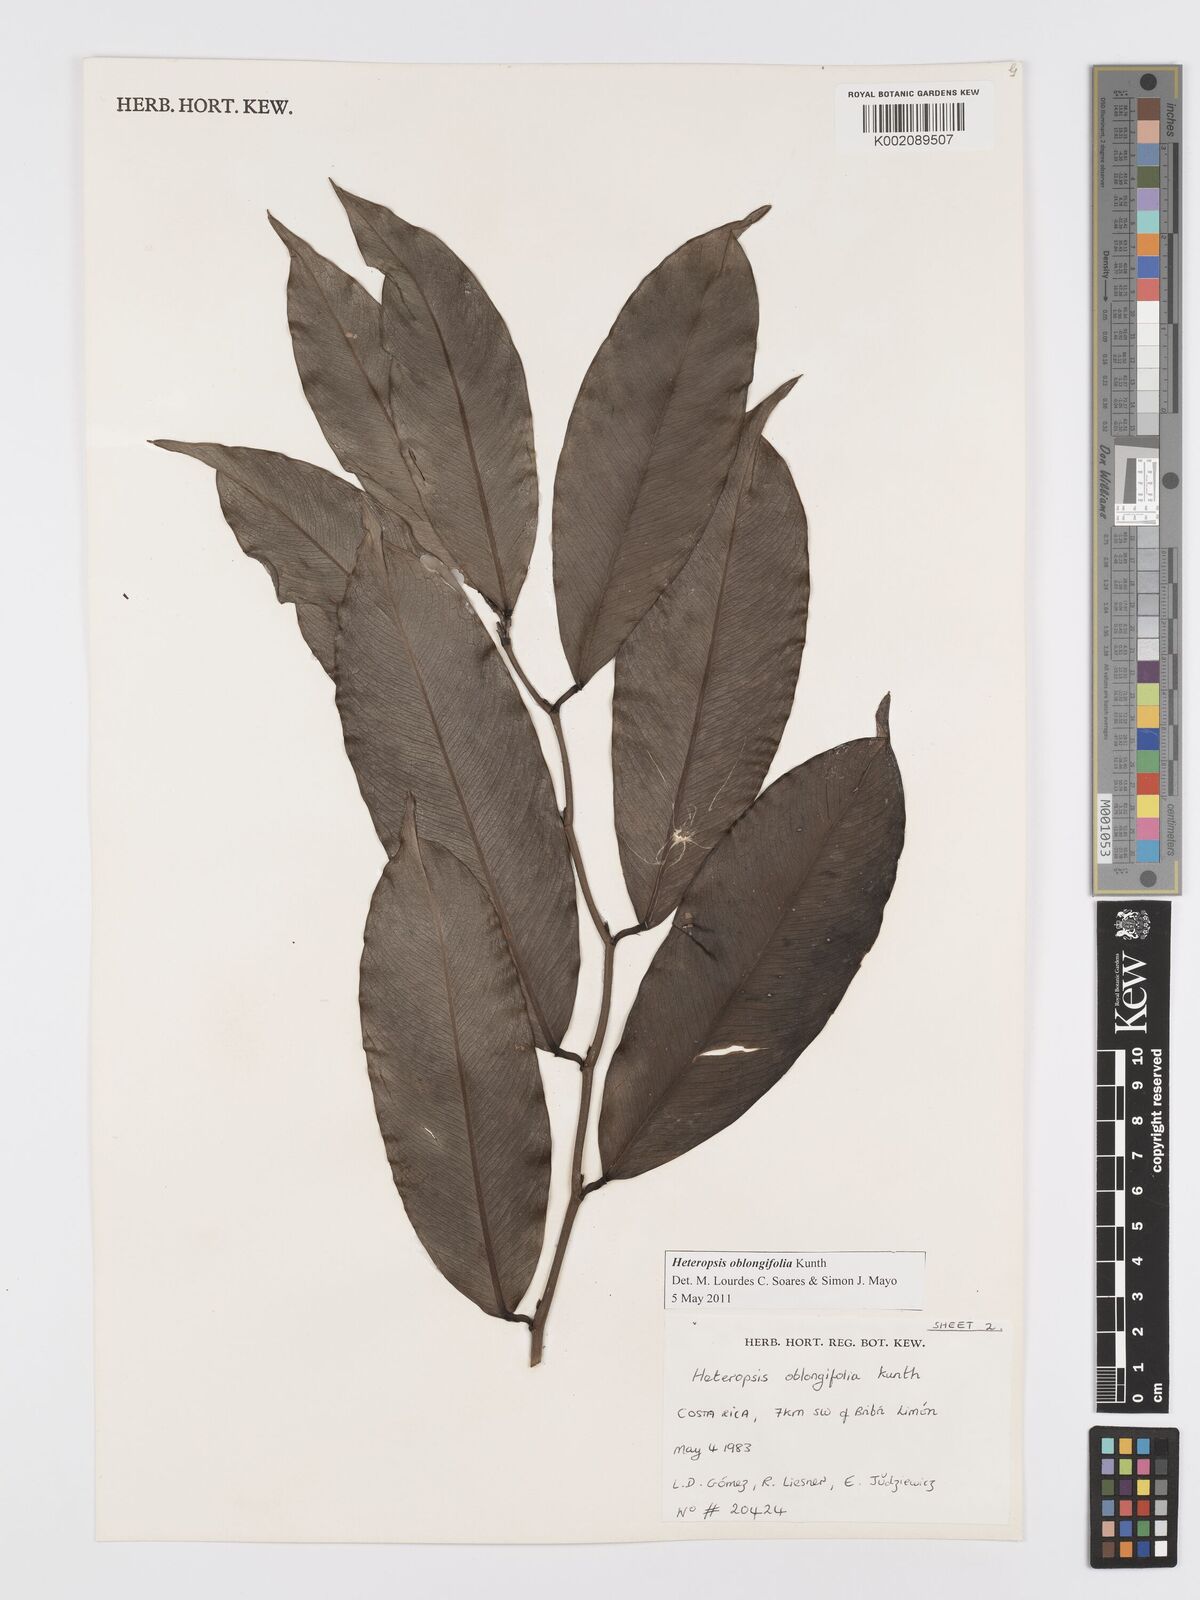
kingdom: Plantae
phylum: Tracheophyta
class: Liliopsida
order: Alismatales
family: Araceae
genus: Heteropsis
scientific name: Heteropsis oblongifolia
